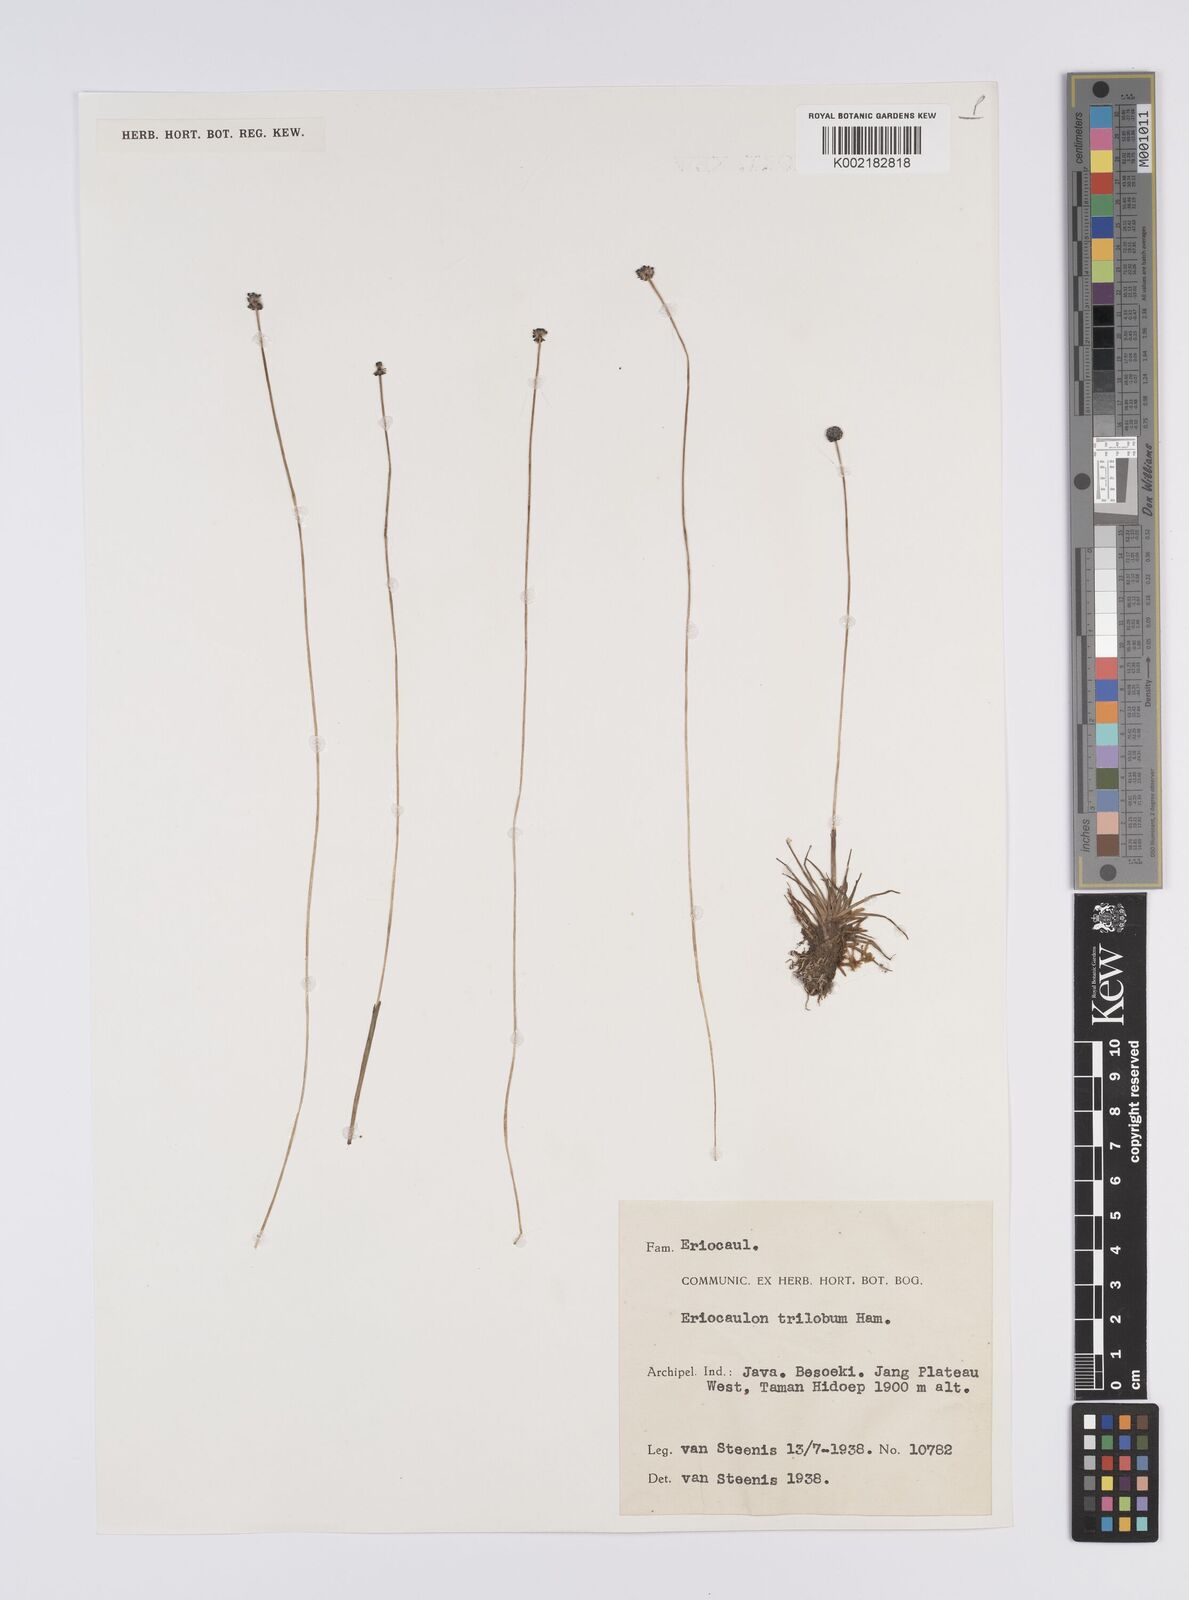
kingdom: Plantae
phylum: Tracheophyta
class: Liliopsida
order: Poales
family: Eriocaulaceae
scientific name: Eriocaulaceae
